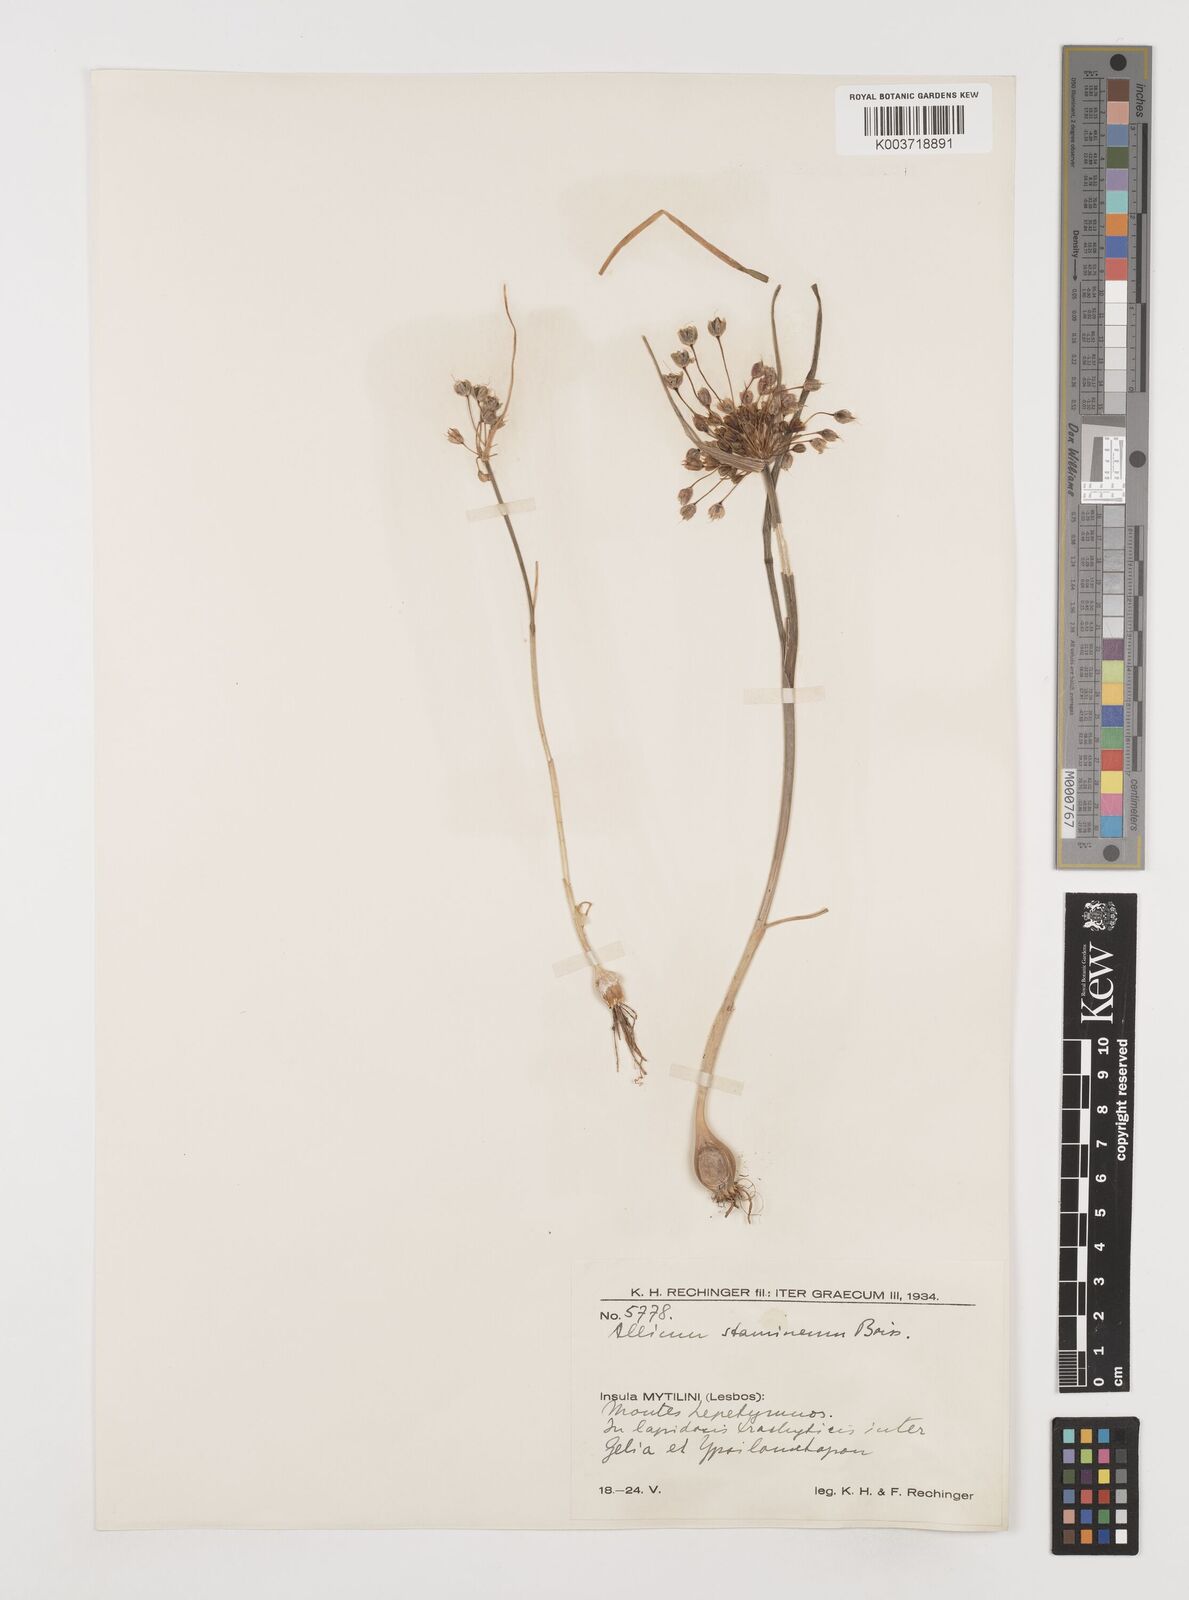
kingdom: Plantae
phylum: Tracheophyta
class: Liliopsida
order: Asparagales
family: Amaryllidaceae
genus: Allium
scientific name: Allium stamineum
